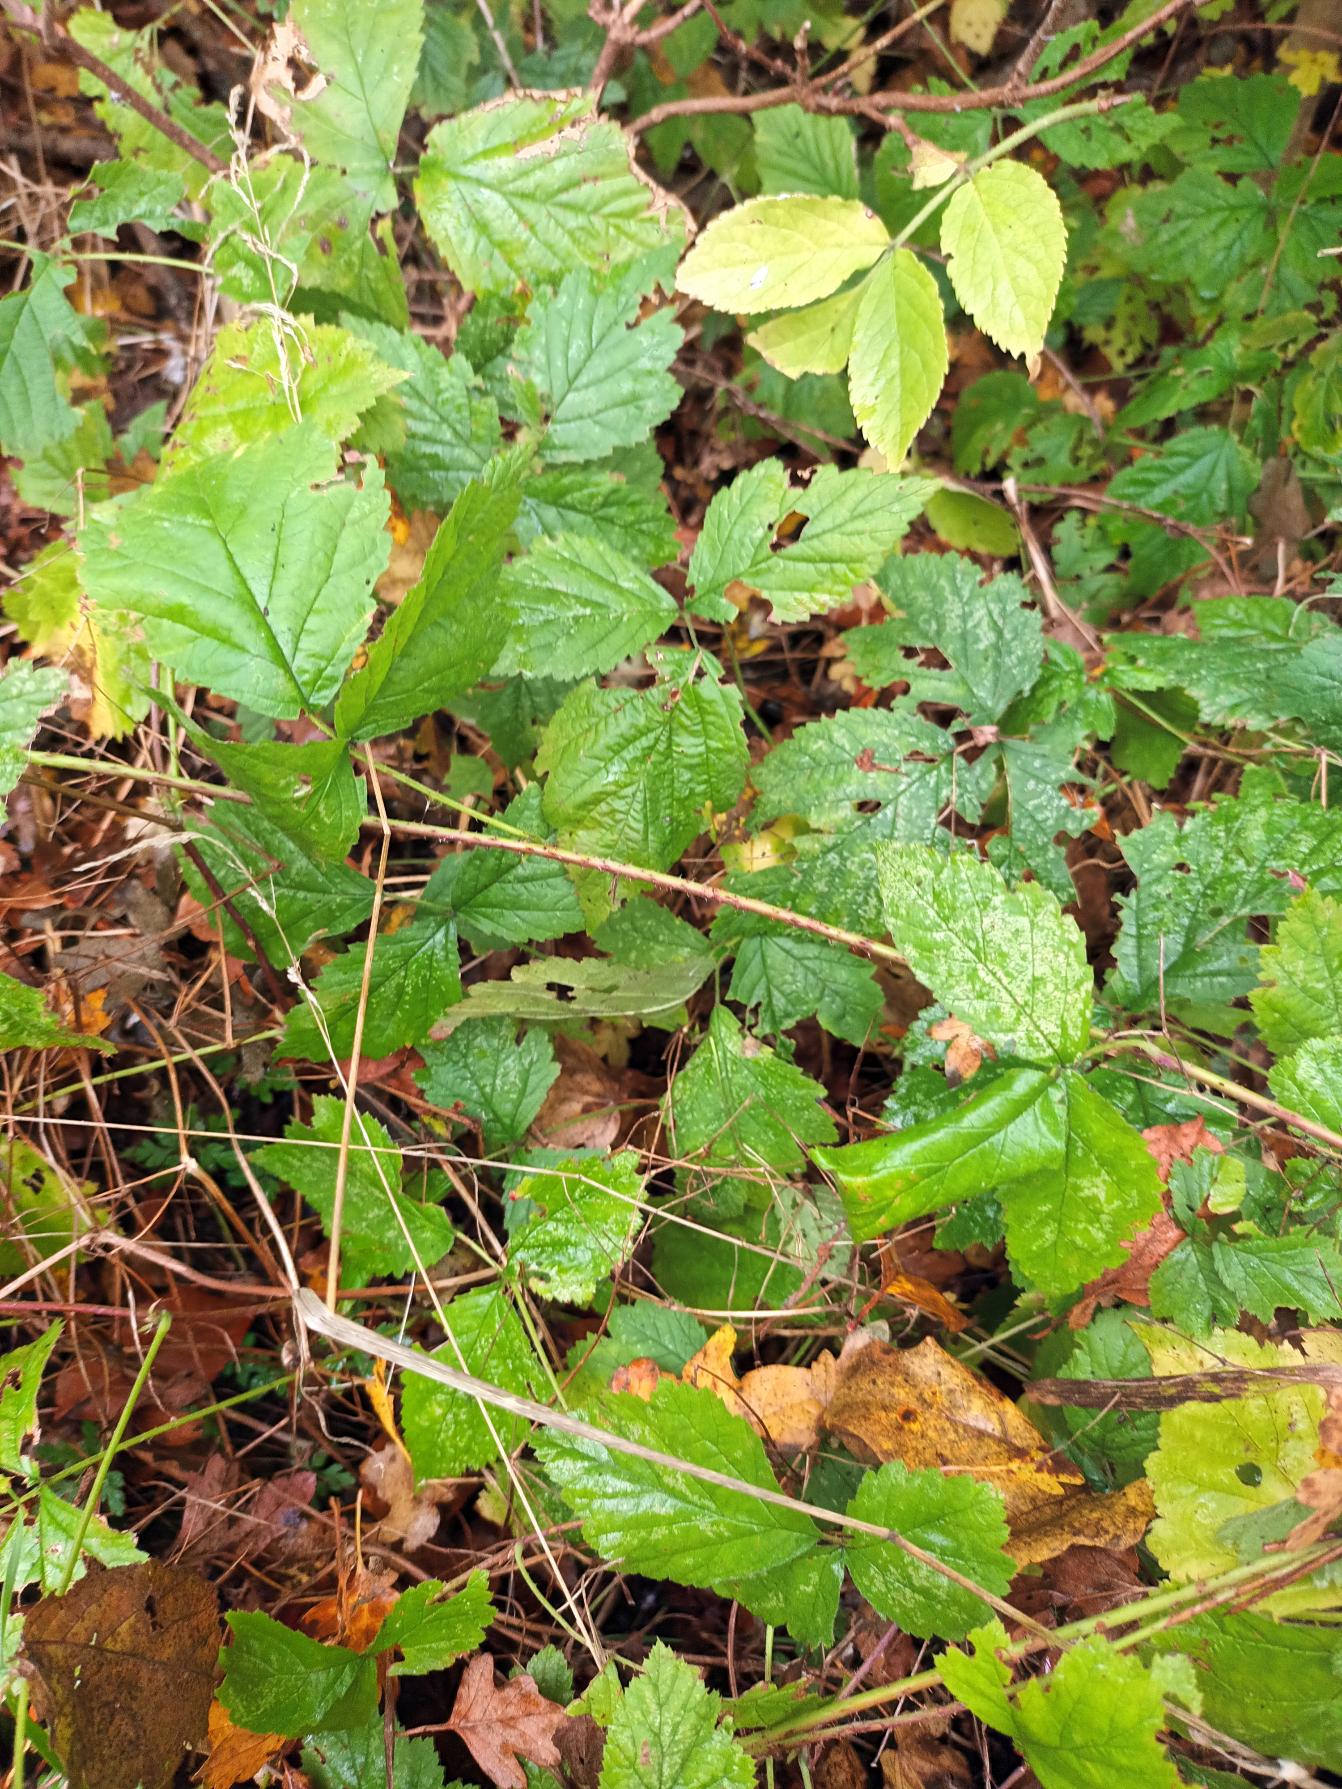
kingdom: Plantae
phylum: Tracheophyta
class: Magnoliopsida
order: Rosales
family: Rosaceae
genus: Rubus
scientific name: Rubus caesius
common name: Korbær
